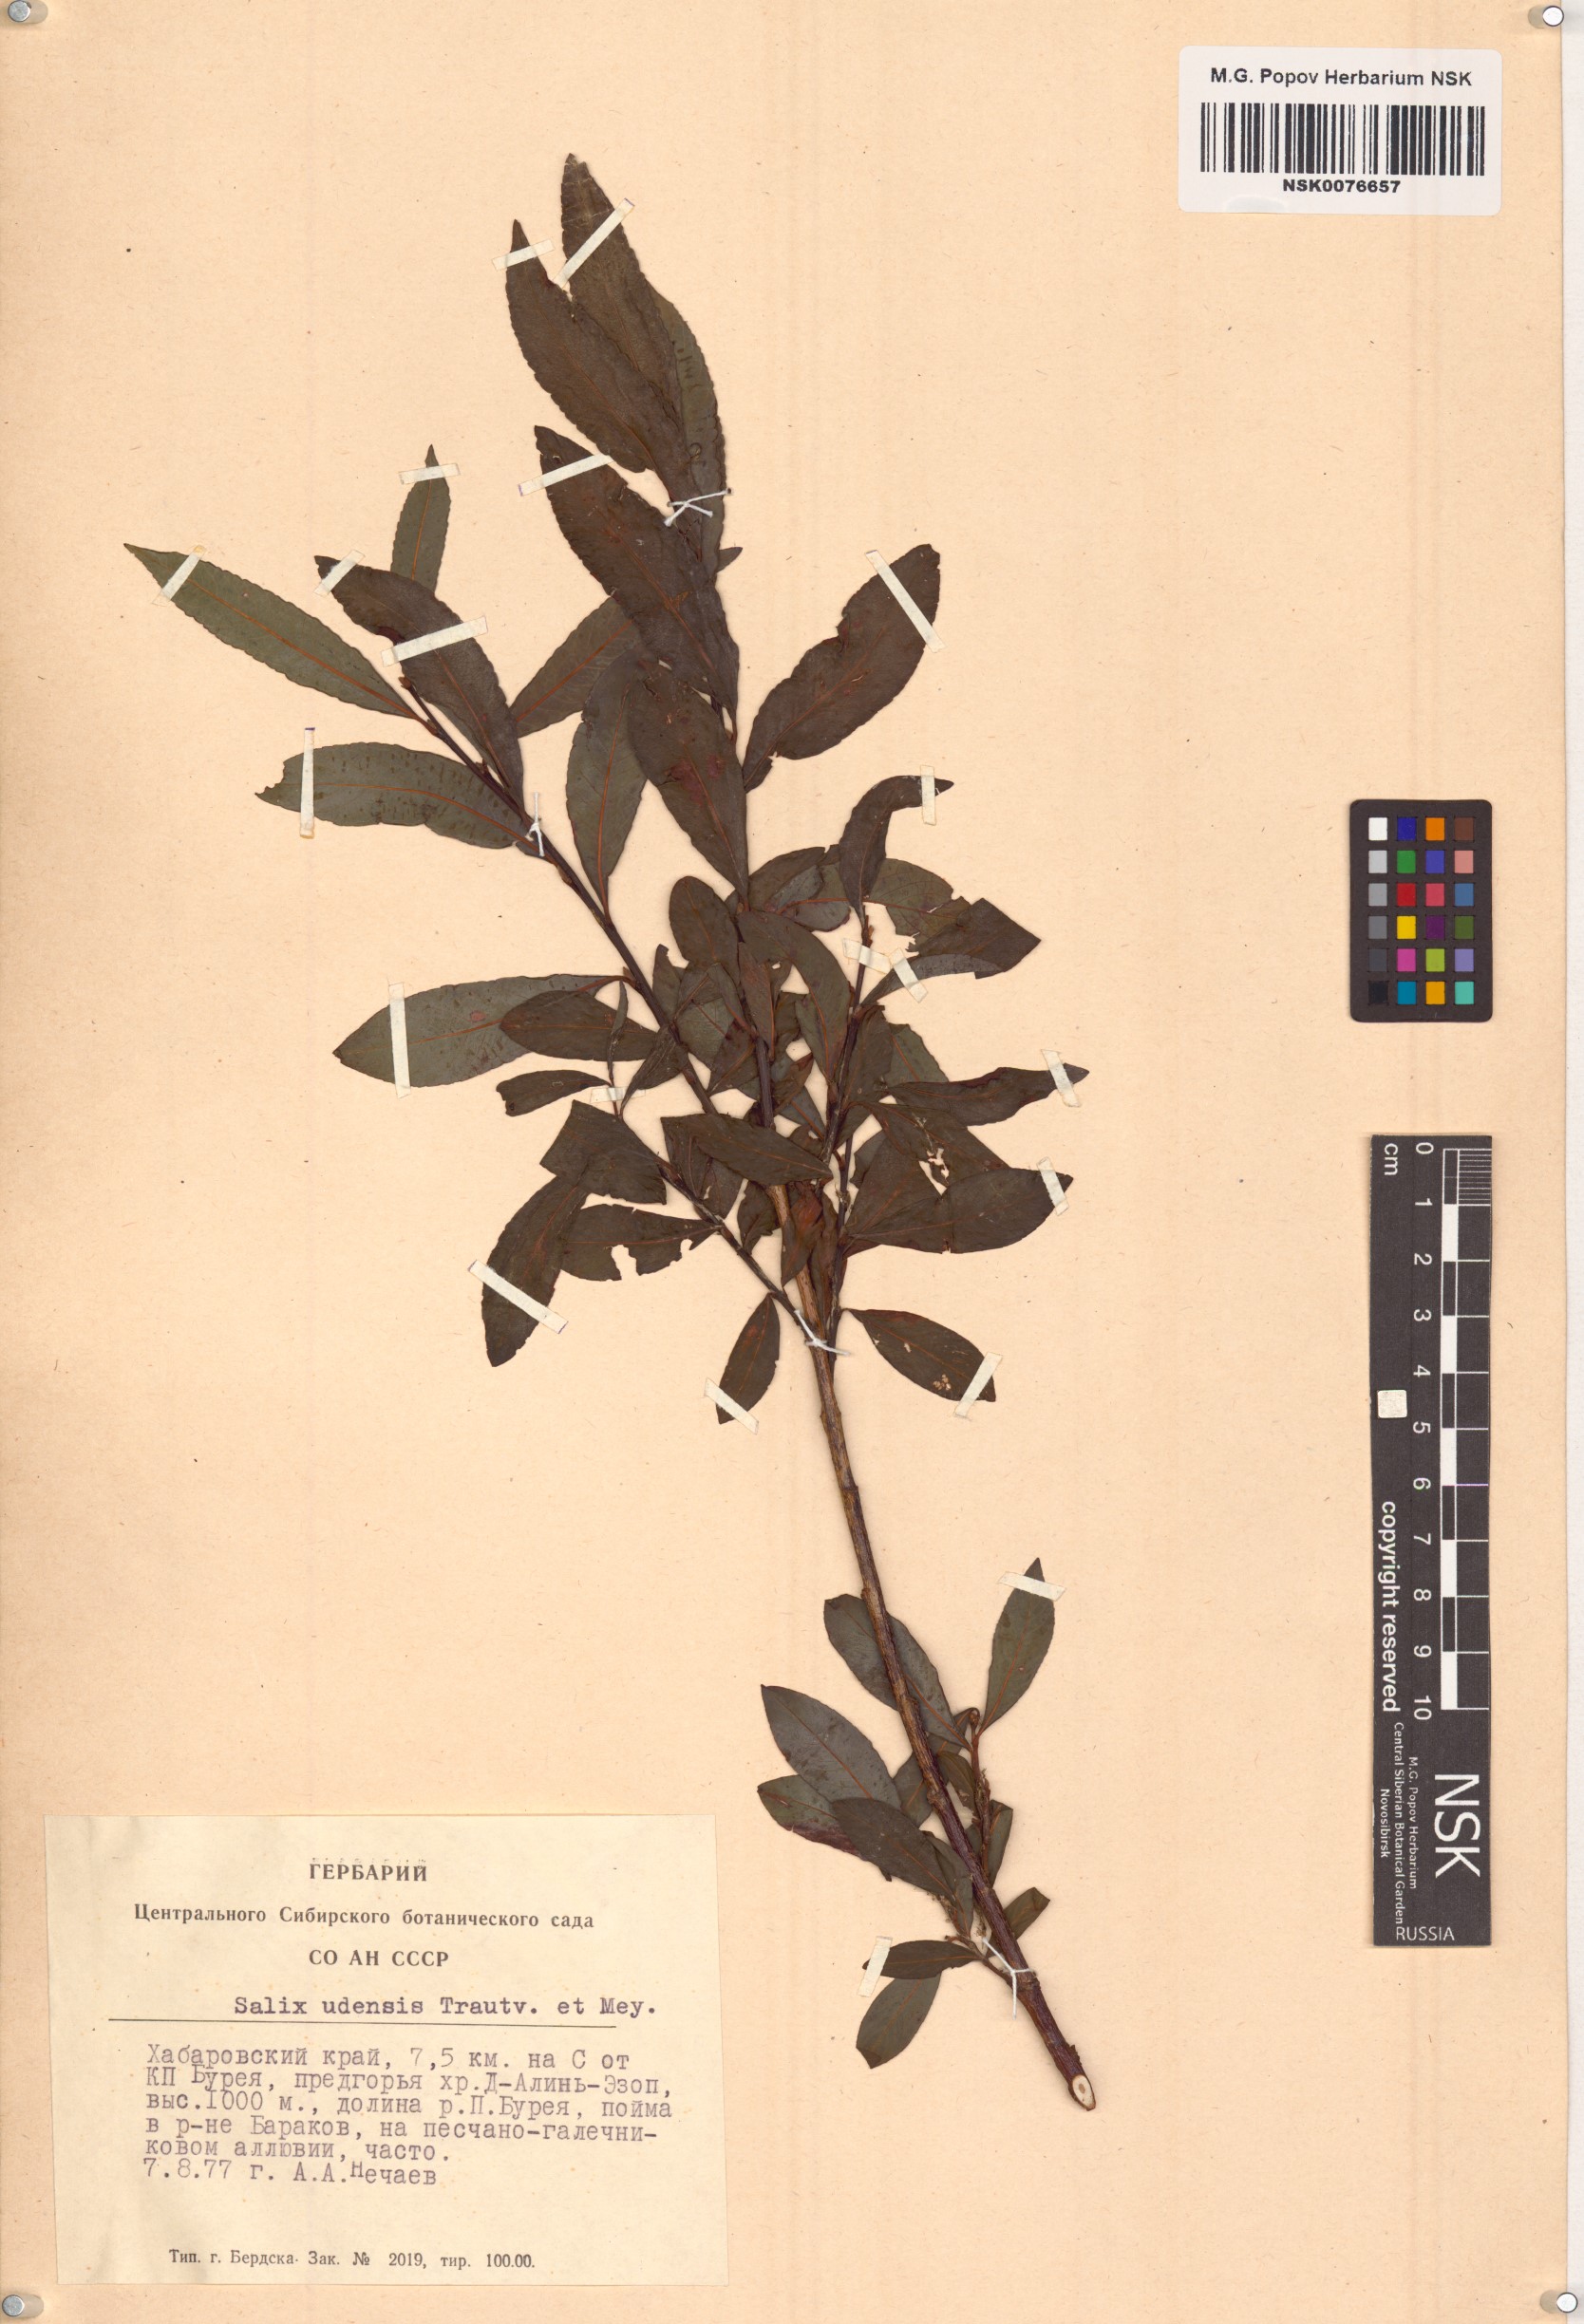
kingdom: Plantae
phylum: Tracheophyta
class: Magnoliopsida
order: Malpighiales
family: Salicaceae
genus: Salix
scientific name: Salix udensis
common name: Sachalin willow
